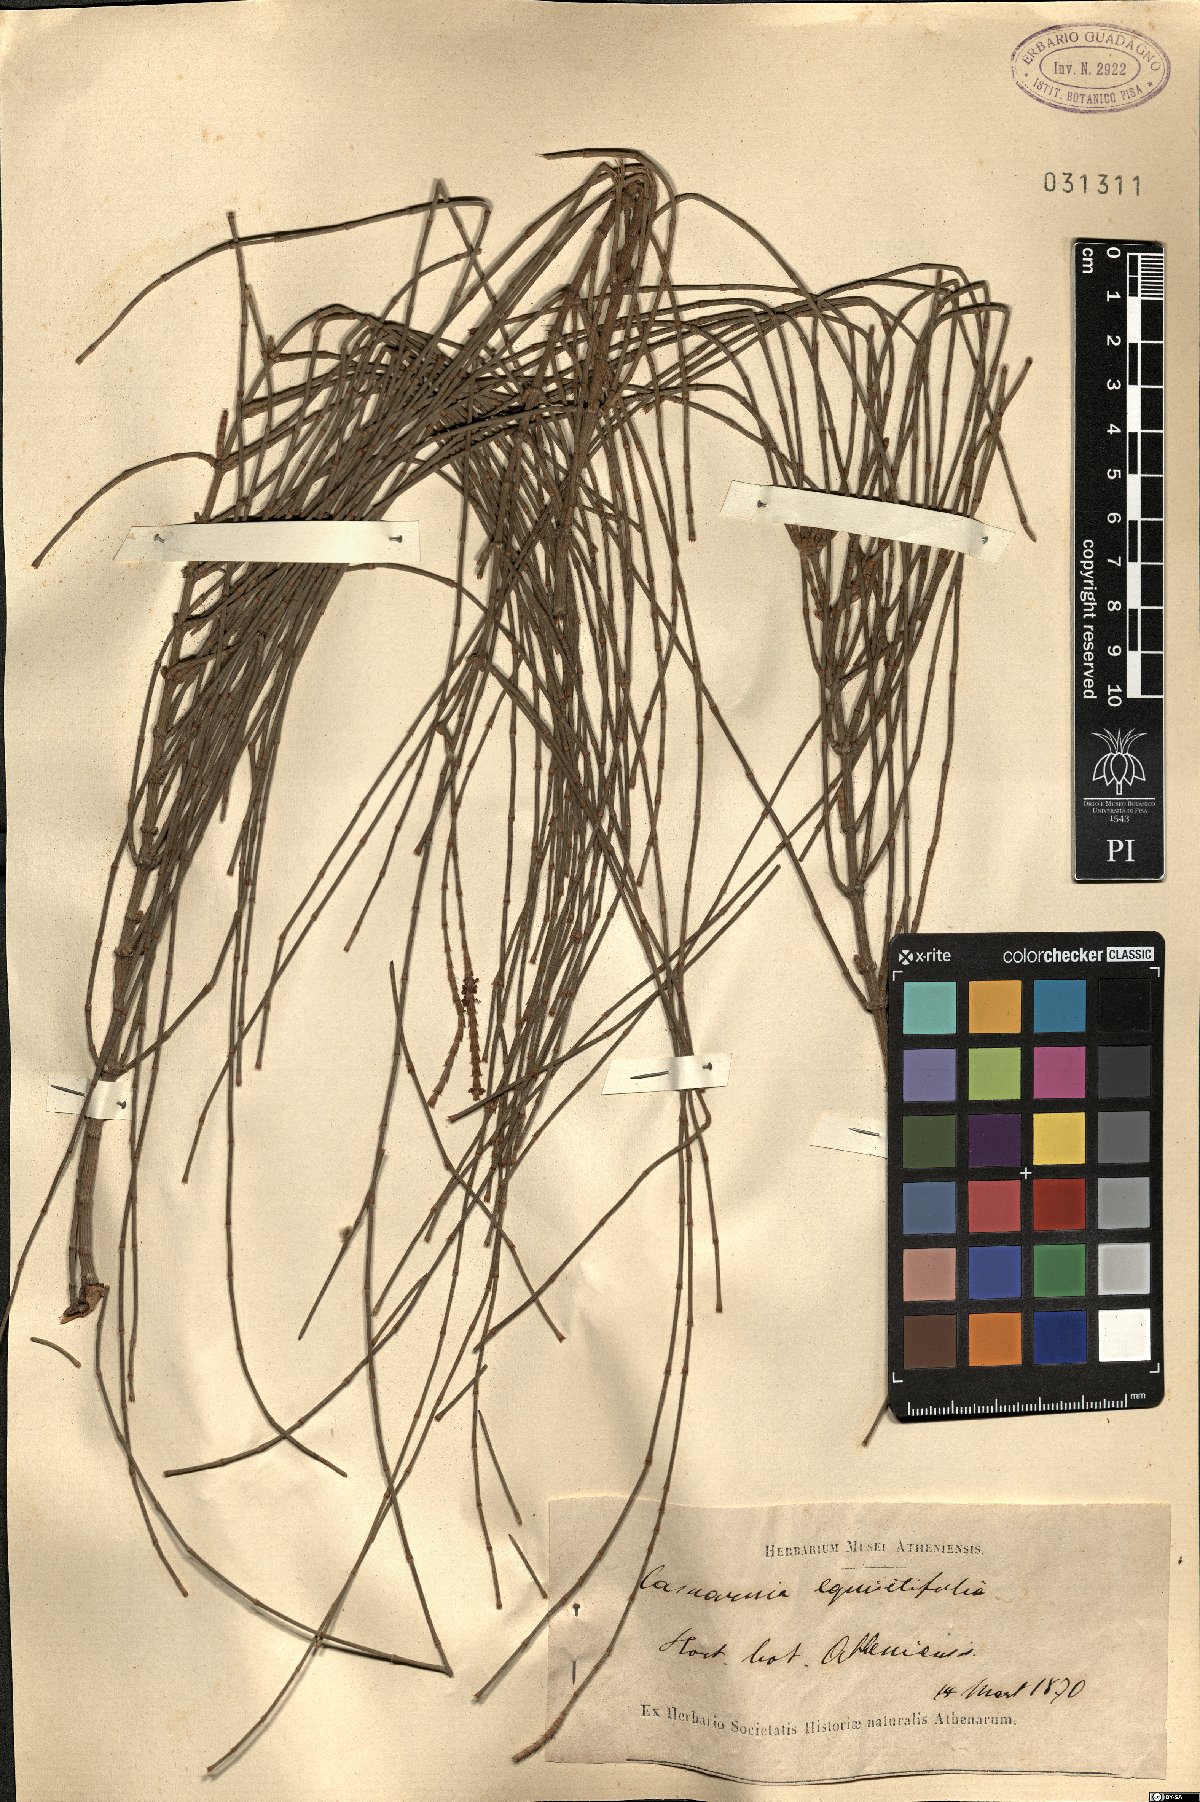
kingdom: Plantae
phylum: Tracheophyta
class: Magnoliopsida
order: Fagales
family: Casuarinaceae
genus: Casuarina
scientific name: Casuarina equisetifolia
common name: Beach sheoak
